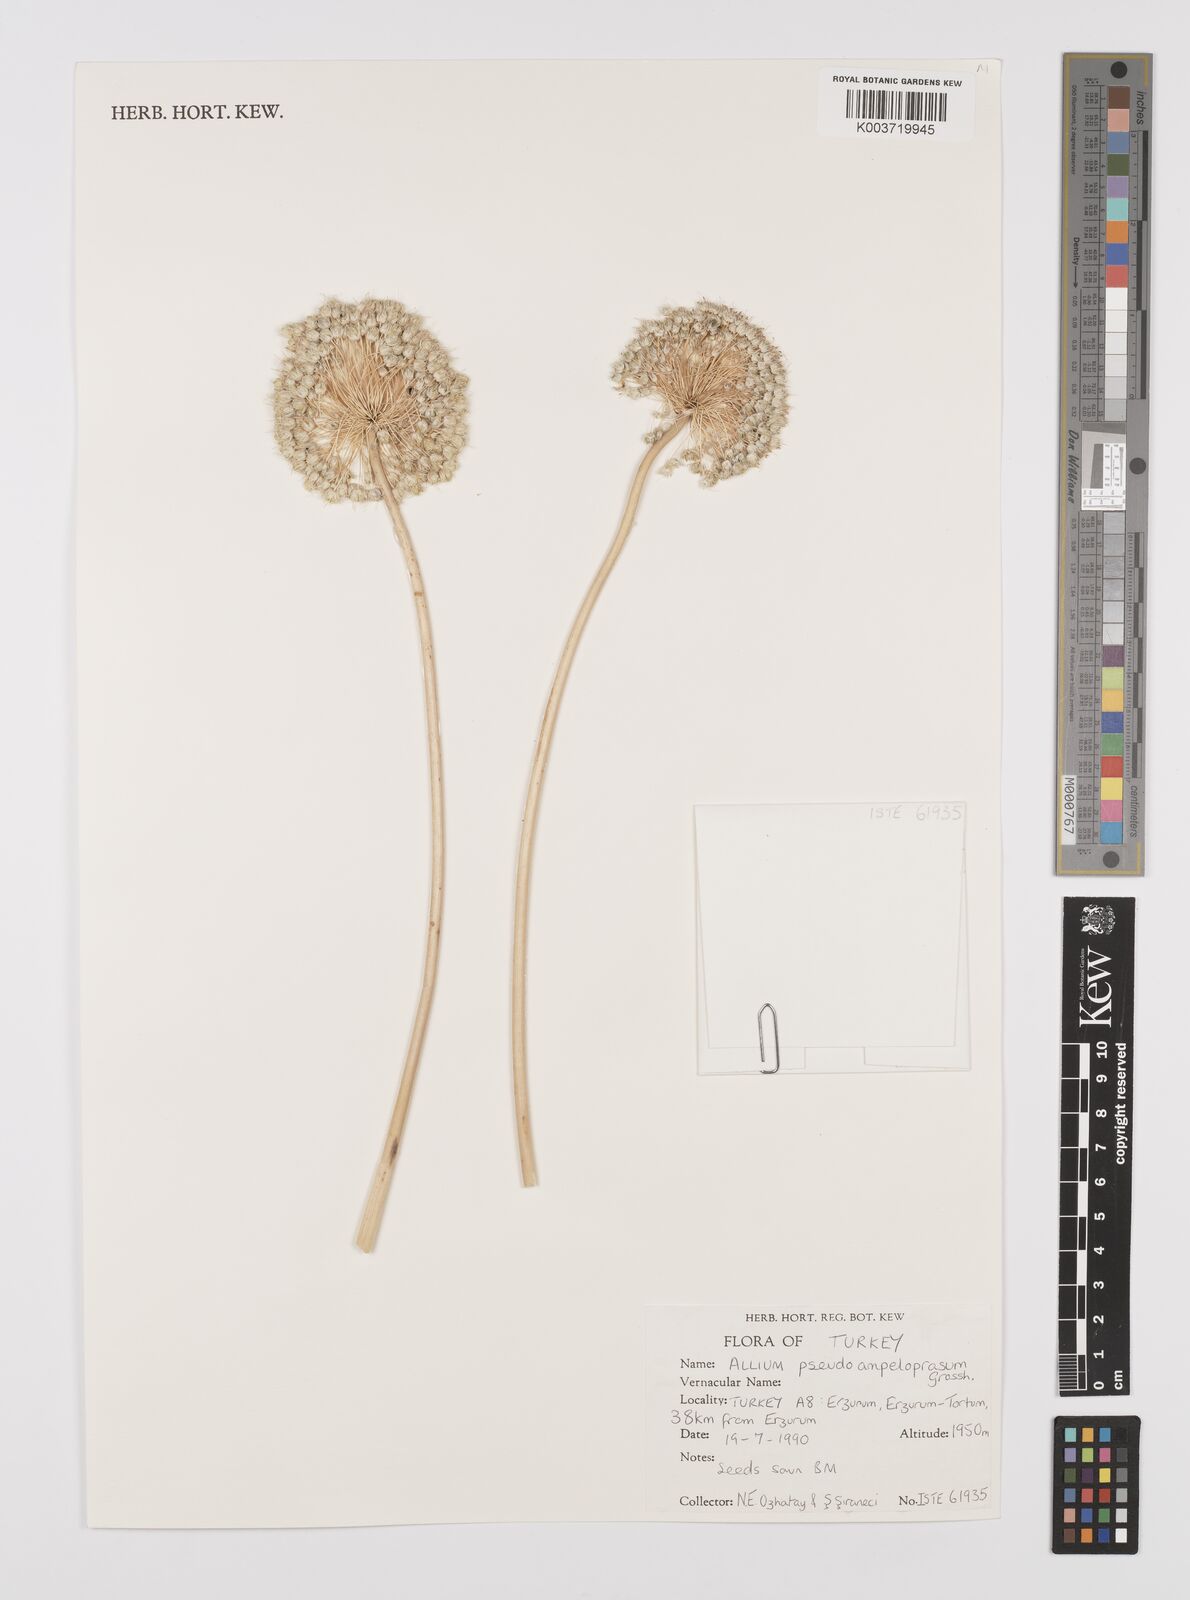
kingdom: Plantae
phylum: Tracheophyta
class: Liliopsida
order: Asparagales
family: Amaryllidaceae
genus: Allium
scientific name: Allium pseudoampeloprasum
